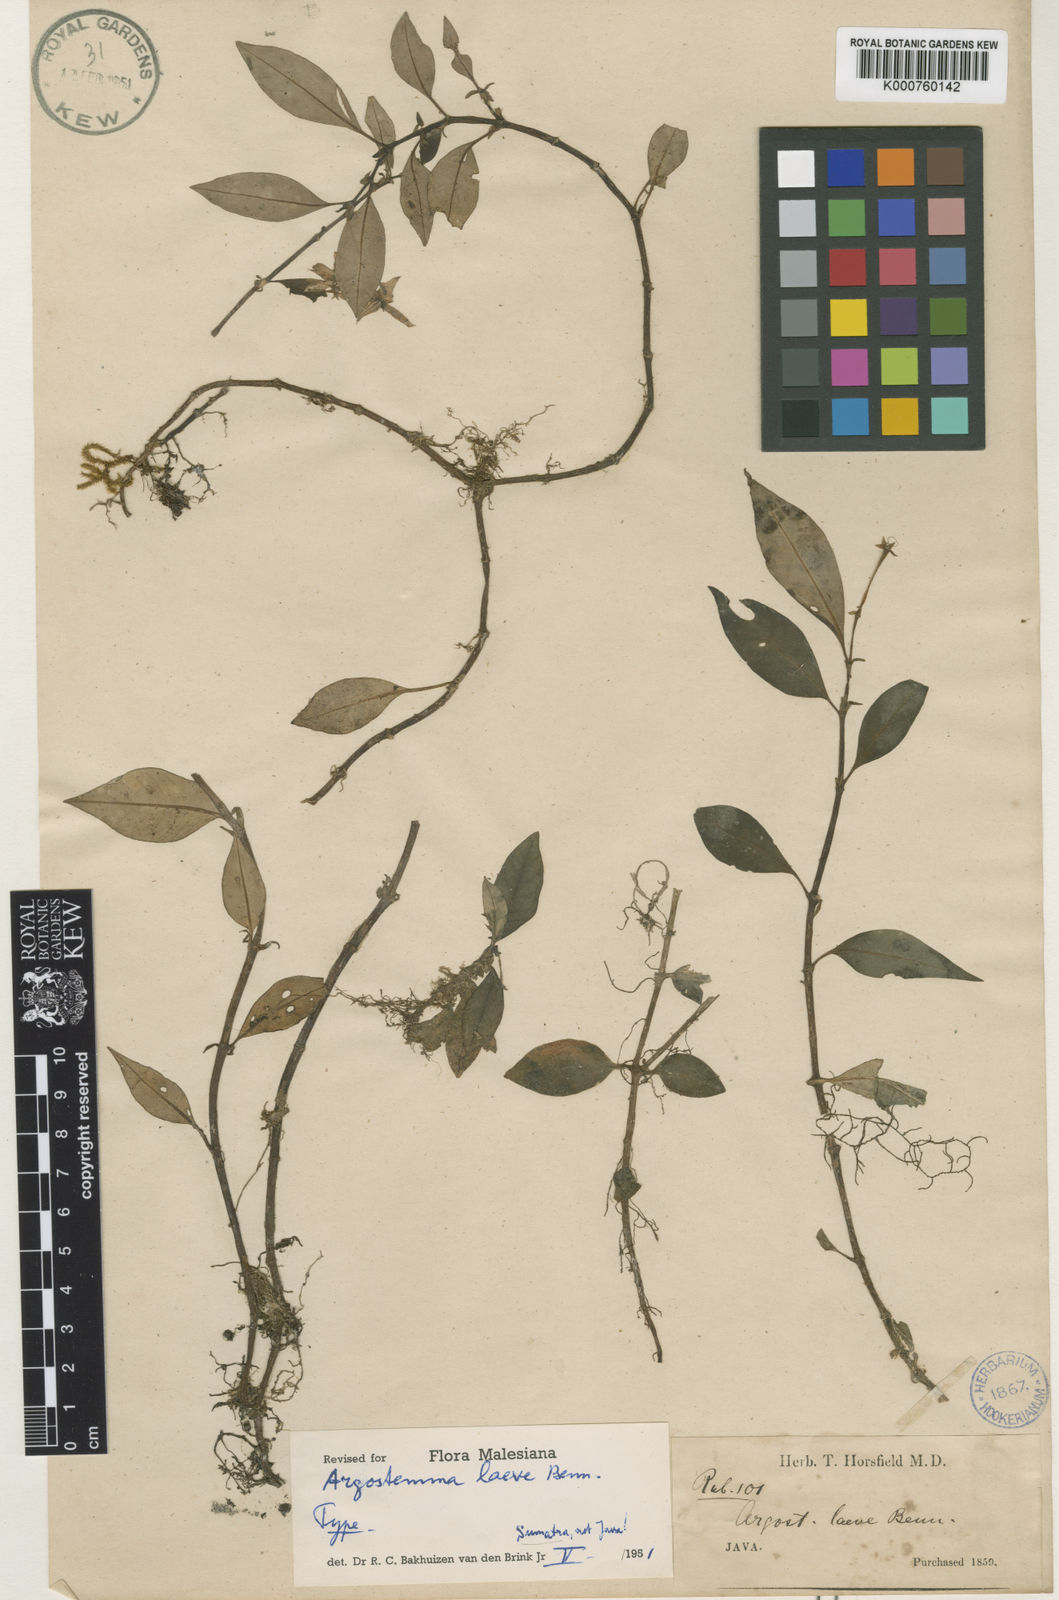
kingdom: Plantae
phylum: Tracheophyta
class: Magnoliopsida
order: Gentianales
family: Rubiaceae
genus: Argostemma
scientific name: Argostemma laeve
